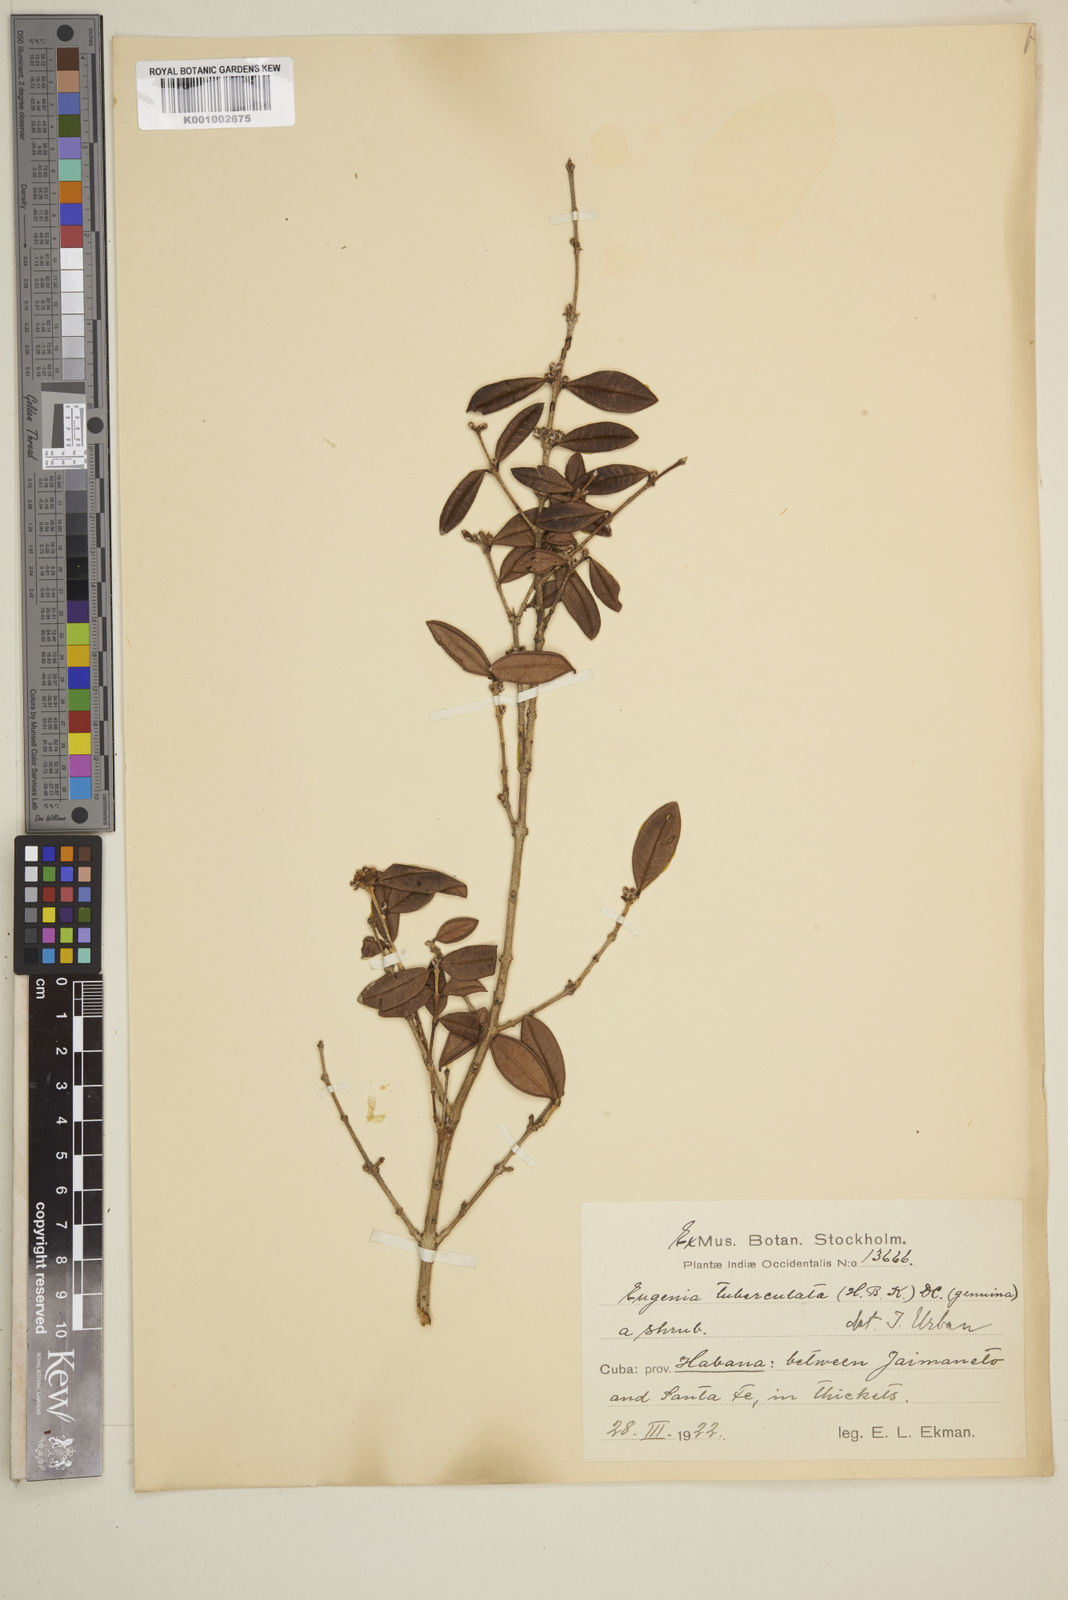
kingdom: Plantae
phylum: Tracheophyta
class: Magnoliopsida
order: Myrtales
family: Myrtaceae
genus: Eugenia
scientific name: Eugenia tuberculata
